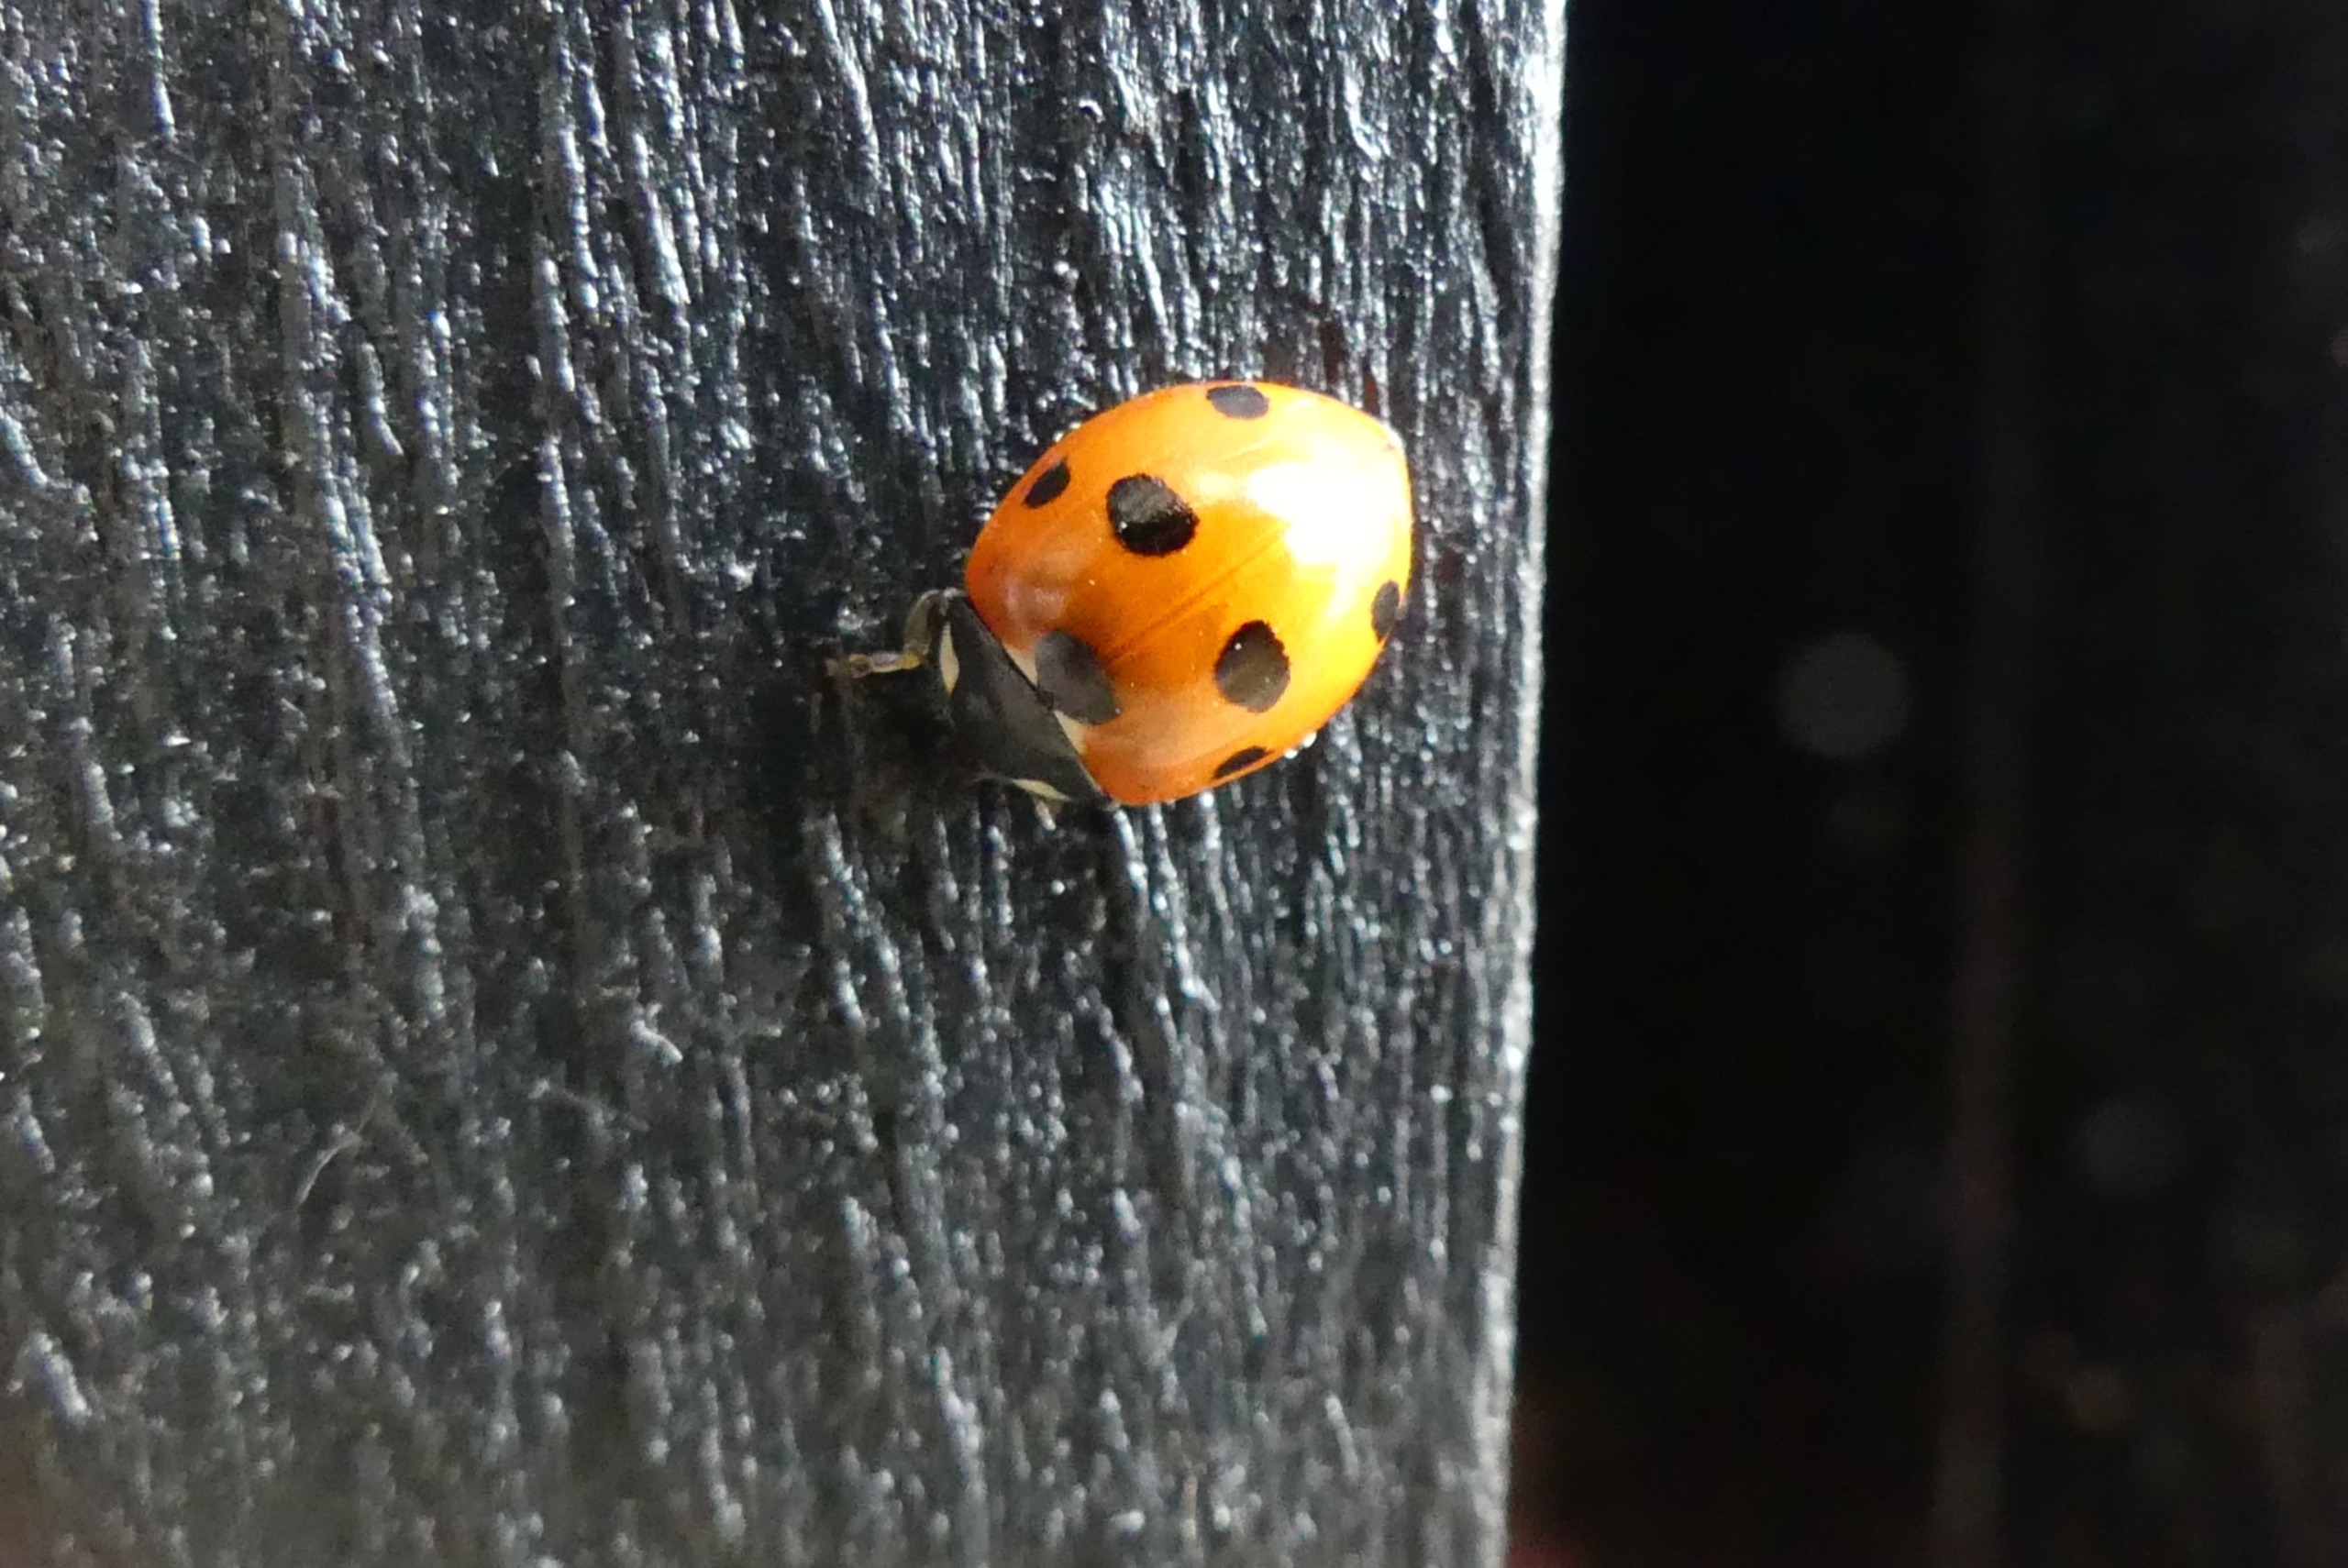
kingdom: Animalia
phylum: Arthropoda
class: Insecta
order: Coleoptera
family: Coccinellidae
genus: Coccinella
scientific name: Coccinella septempunctata
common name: Syvplettet mariehøne
